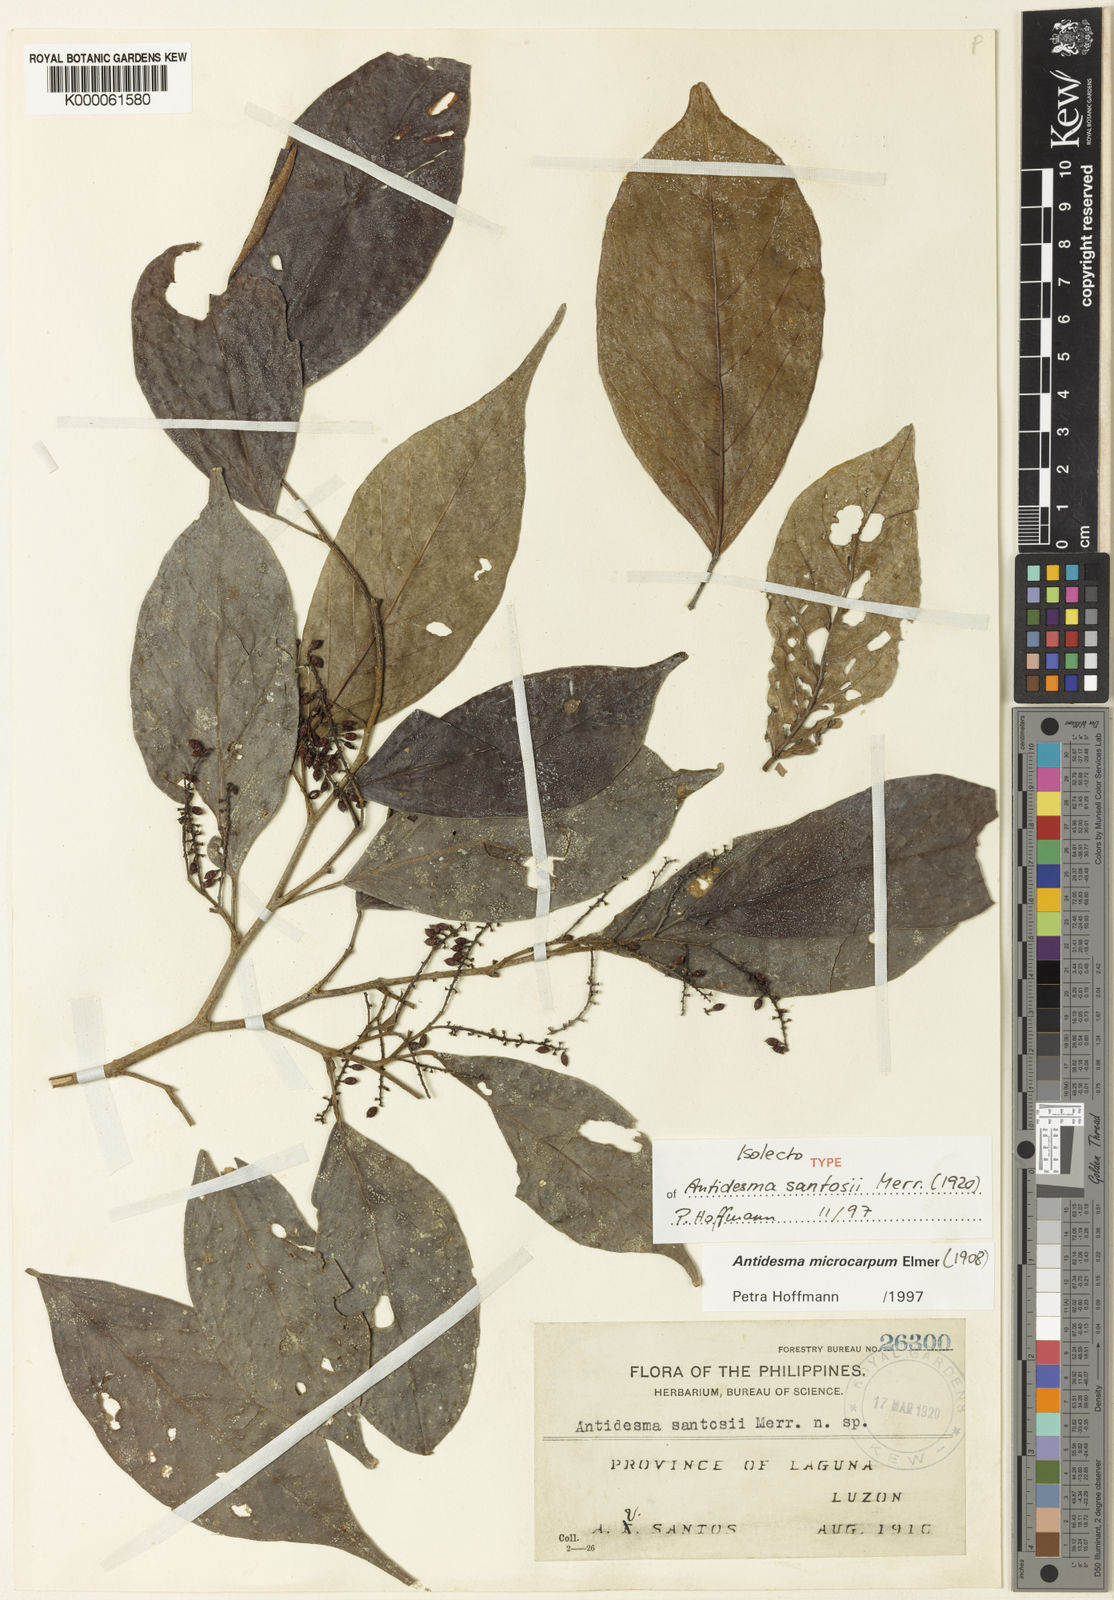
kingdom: Plantae
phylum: Tracheophyta
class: Magnoliopsida
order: Malpighiales
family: Phyllanthaceae
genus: Antidesma
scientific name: Antidesma microcarpum
